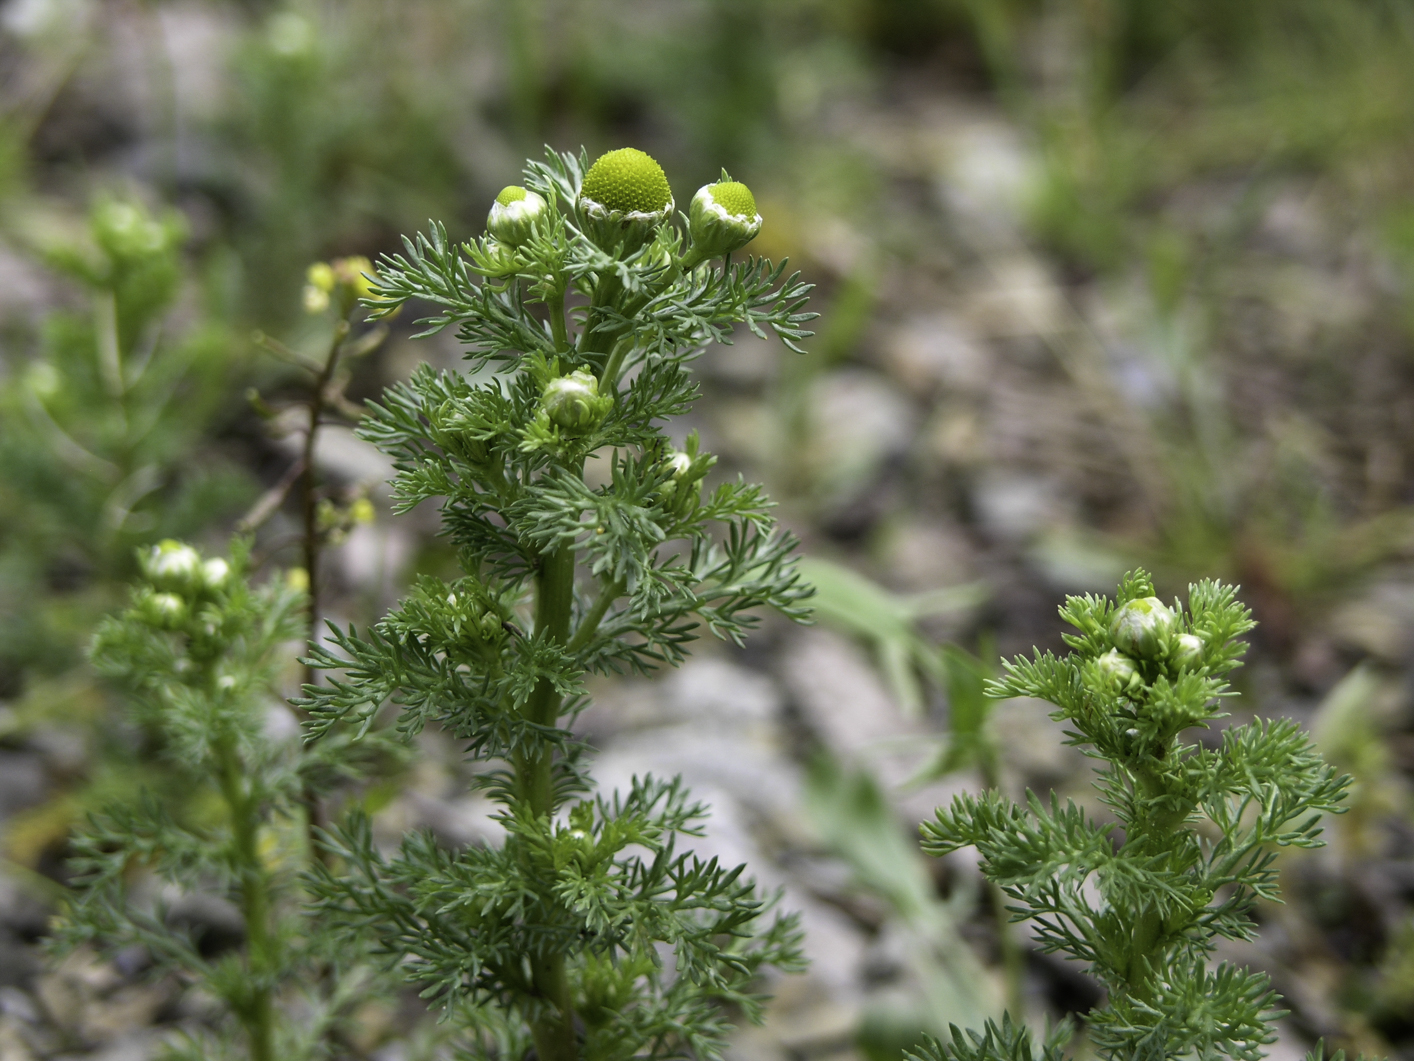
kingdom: Plantae
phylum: Tracheophyta
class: Magnoliopsida
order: Asterales
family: Asteraceae
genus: Matricaria
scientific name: Matricaria discoidea
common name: Disc mayweed
